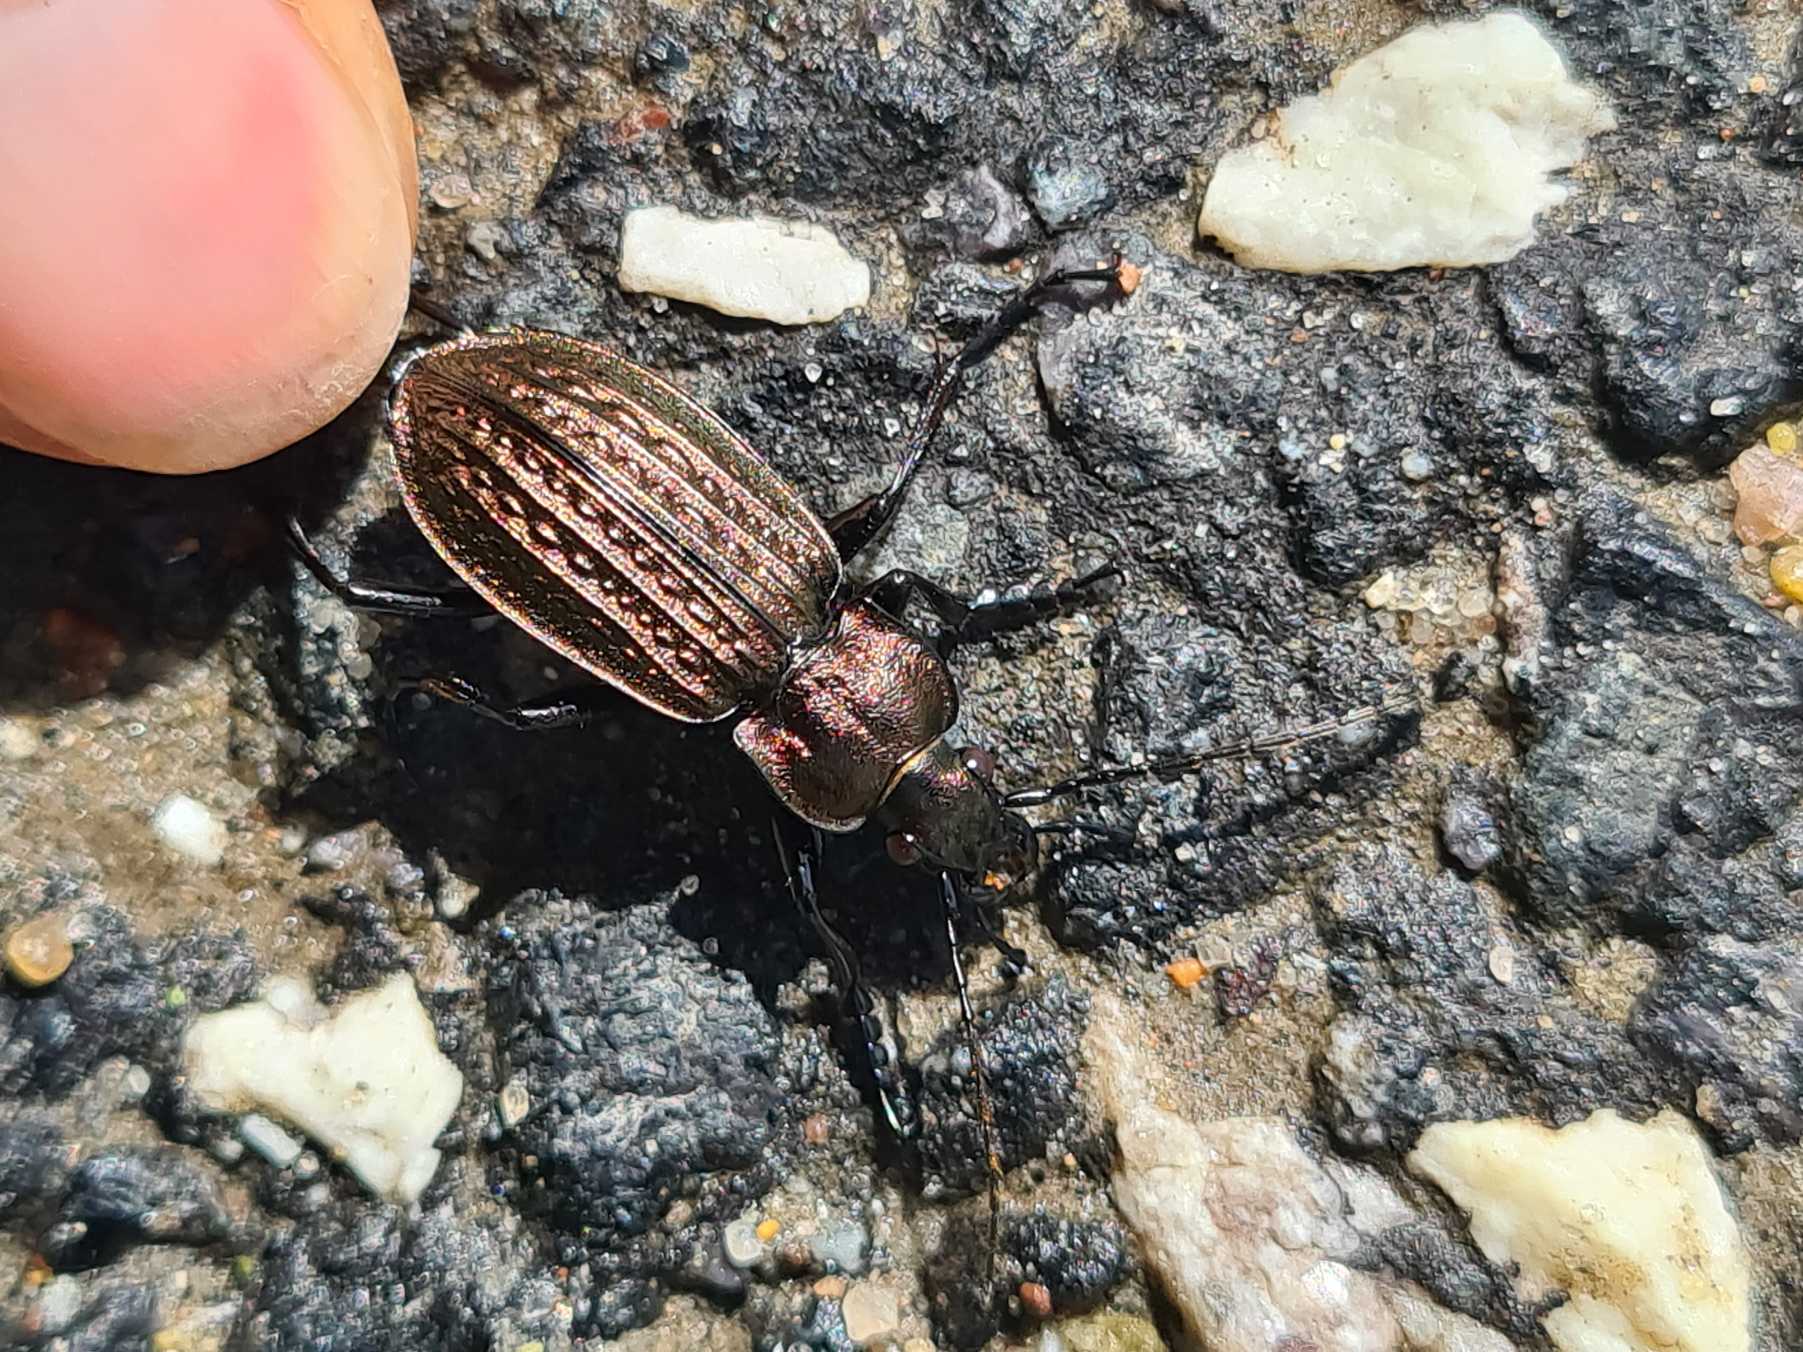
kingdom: Animalia
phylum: Arthropoda
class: Insecta
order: Coleoptera
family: Carabidae
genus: Carabus
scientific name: Carabus granulatus
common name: Kornet løber
